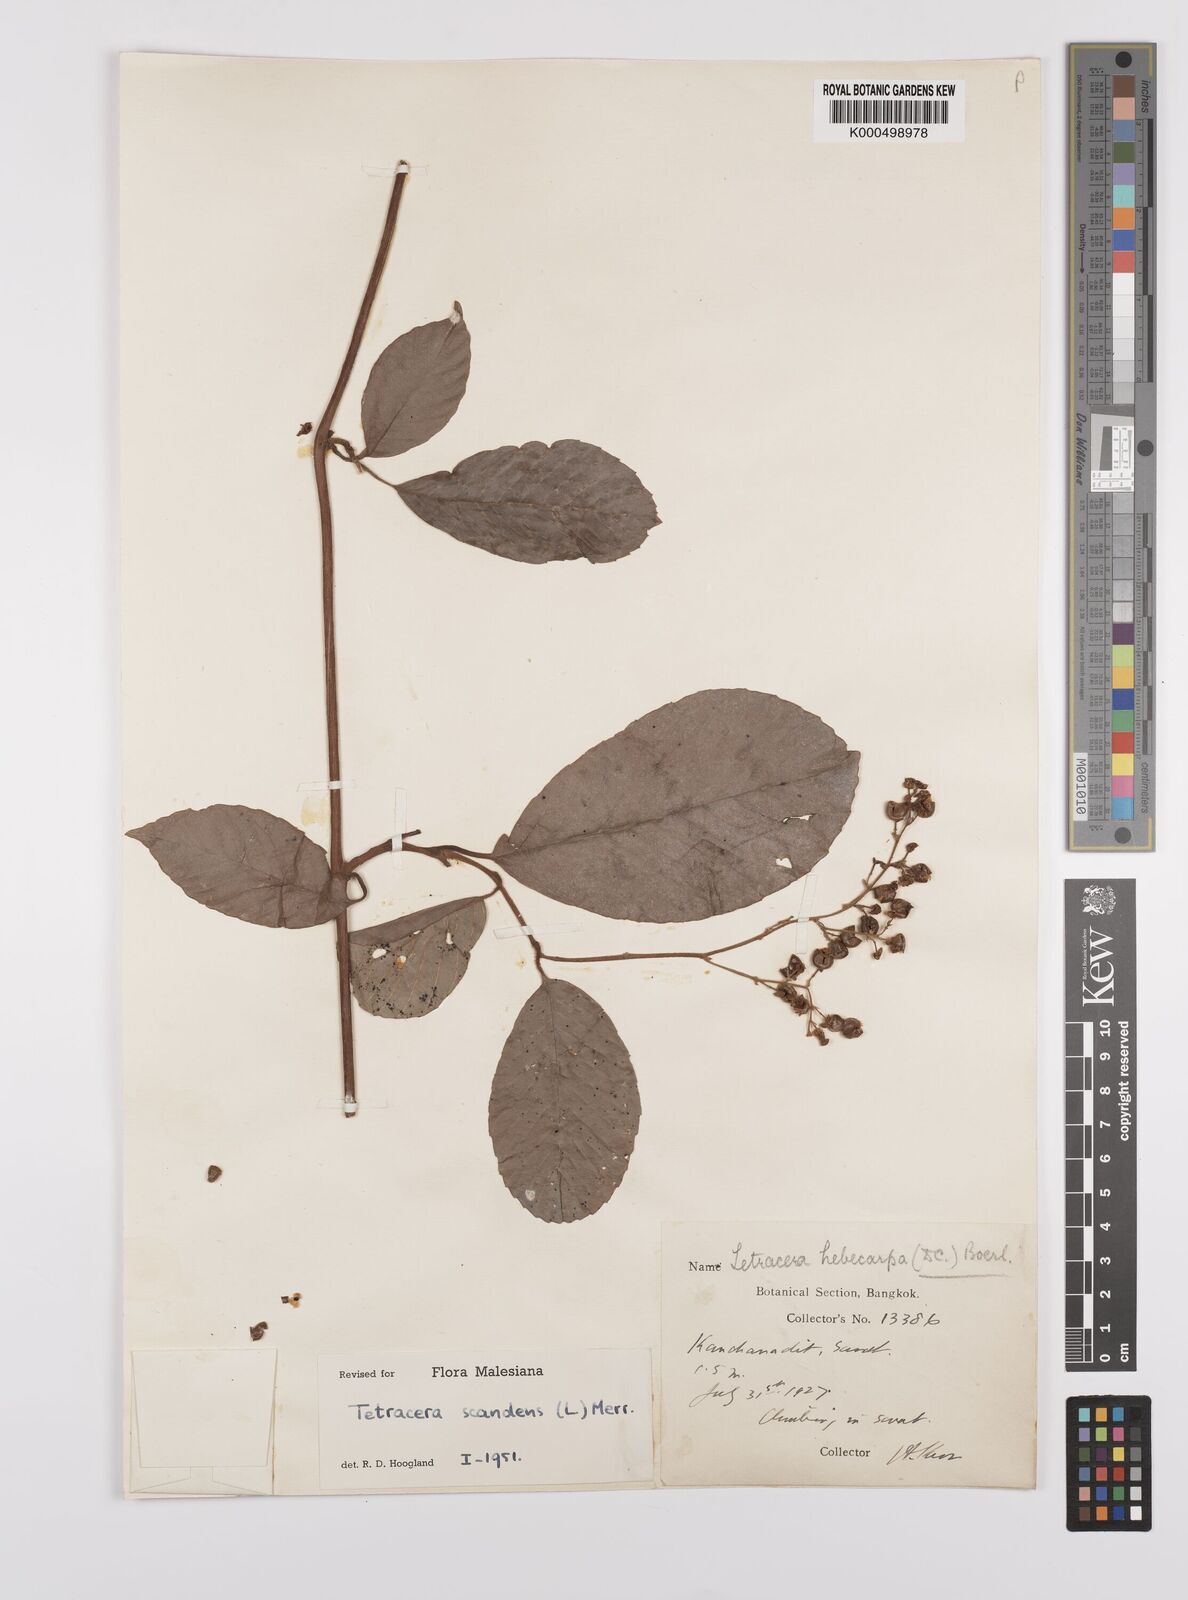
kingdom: Plantae
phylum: Tracheophyta
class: Magnoliopsida
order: Dilleniales
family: Dilleniaceae
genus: Tetracera
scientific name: Tetracera scandens
